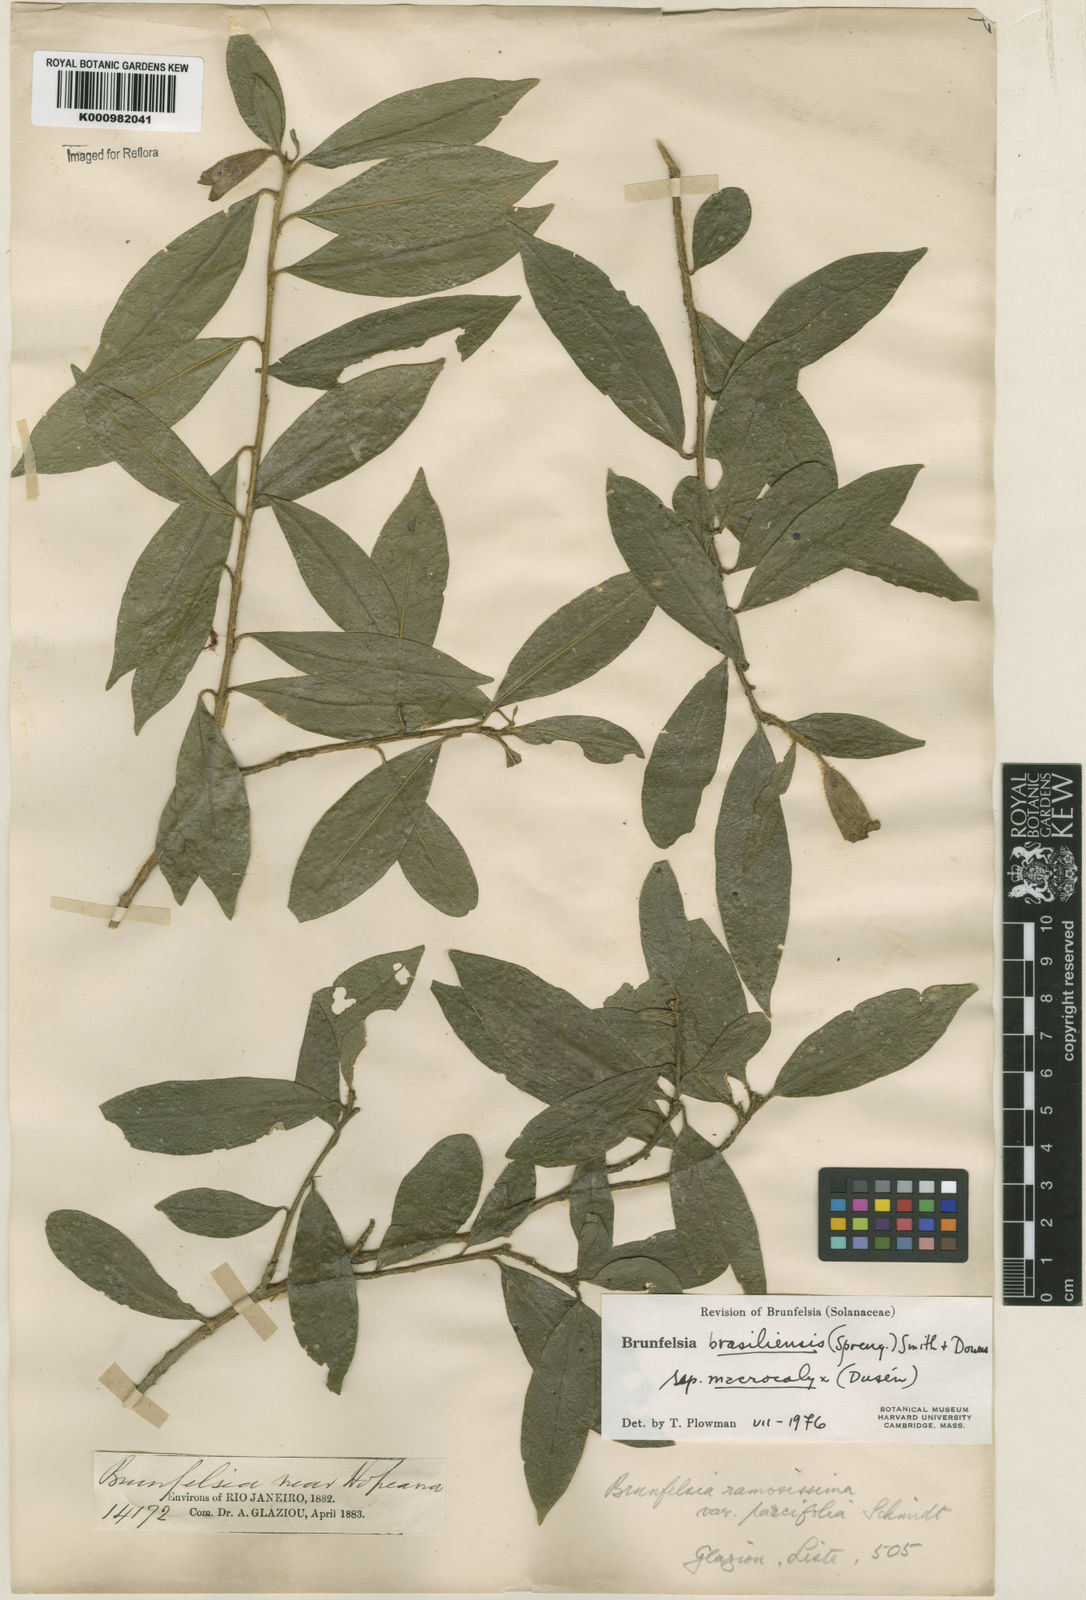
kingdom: Plantae
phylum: Tracheophyta
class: Magnoliopsida
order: Solanales
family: Solanaceae
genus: Brunfelsia
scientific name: Brunfelsia brasiliensis
